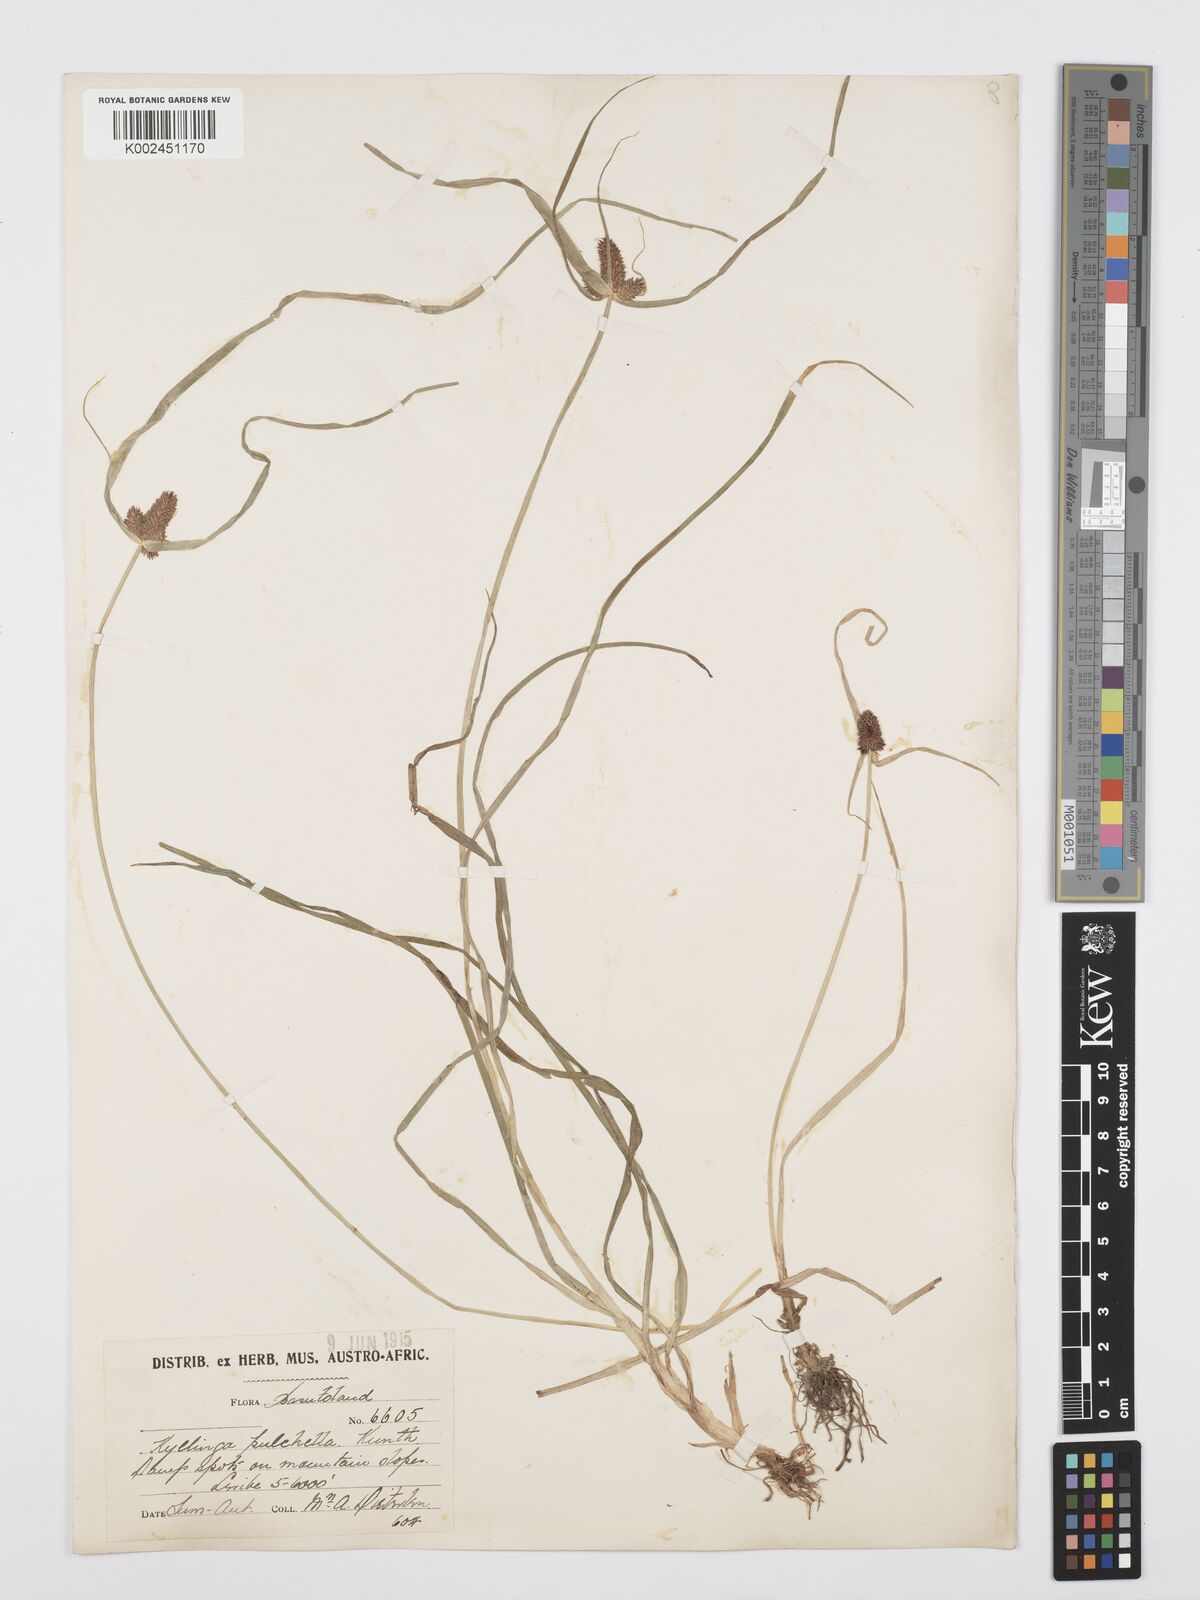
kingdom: Plantae
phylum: Tracheophyta
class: Liliopsida
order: Poales
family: Cyperaceae
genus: Cyperus
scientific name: Cyperus bracheilema
